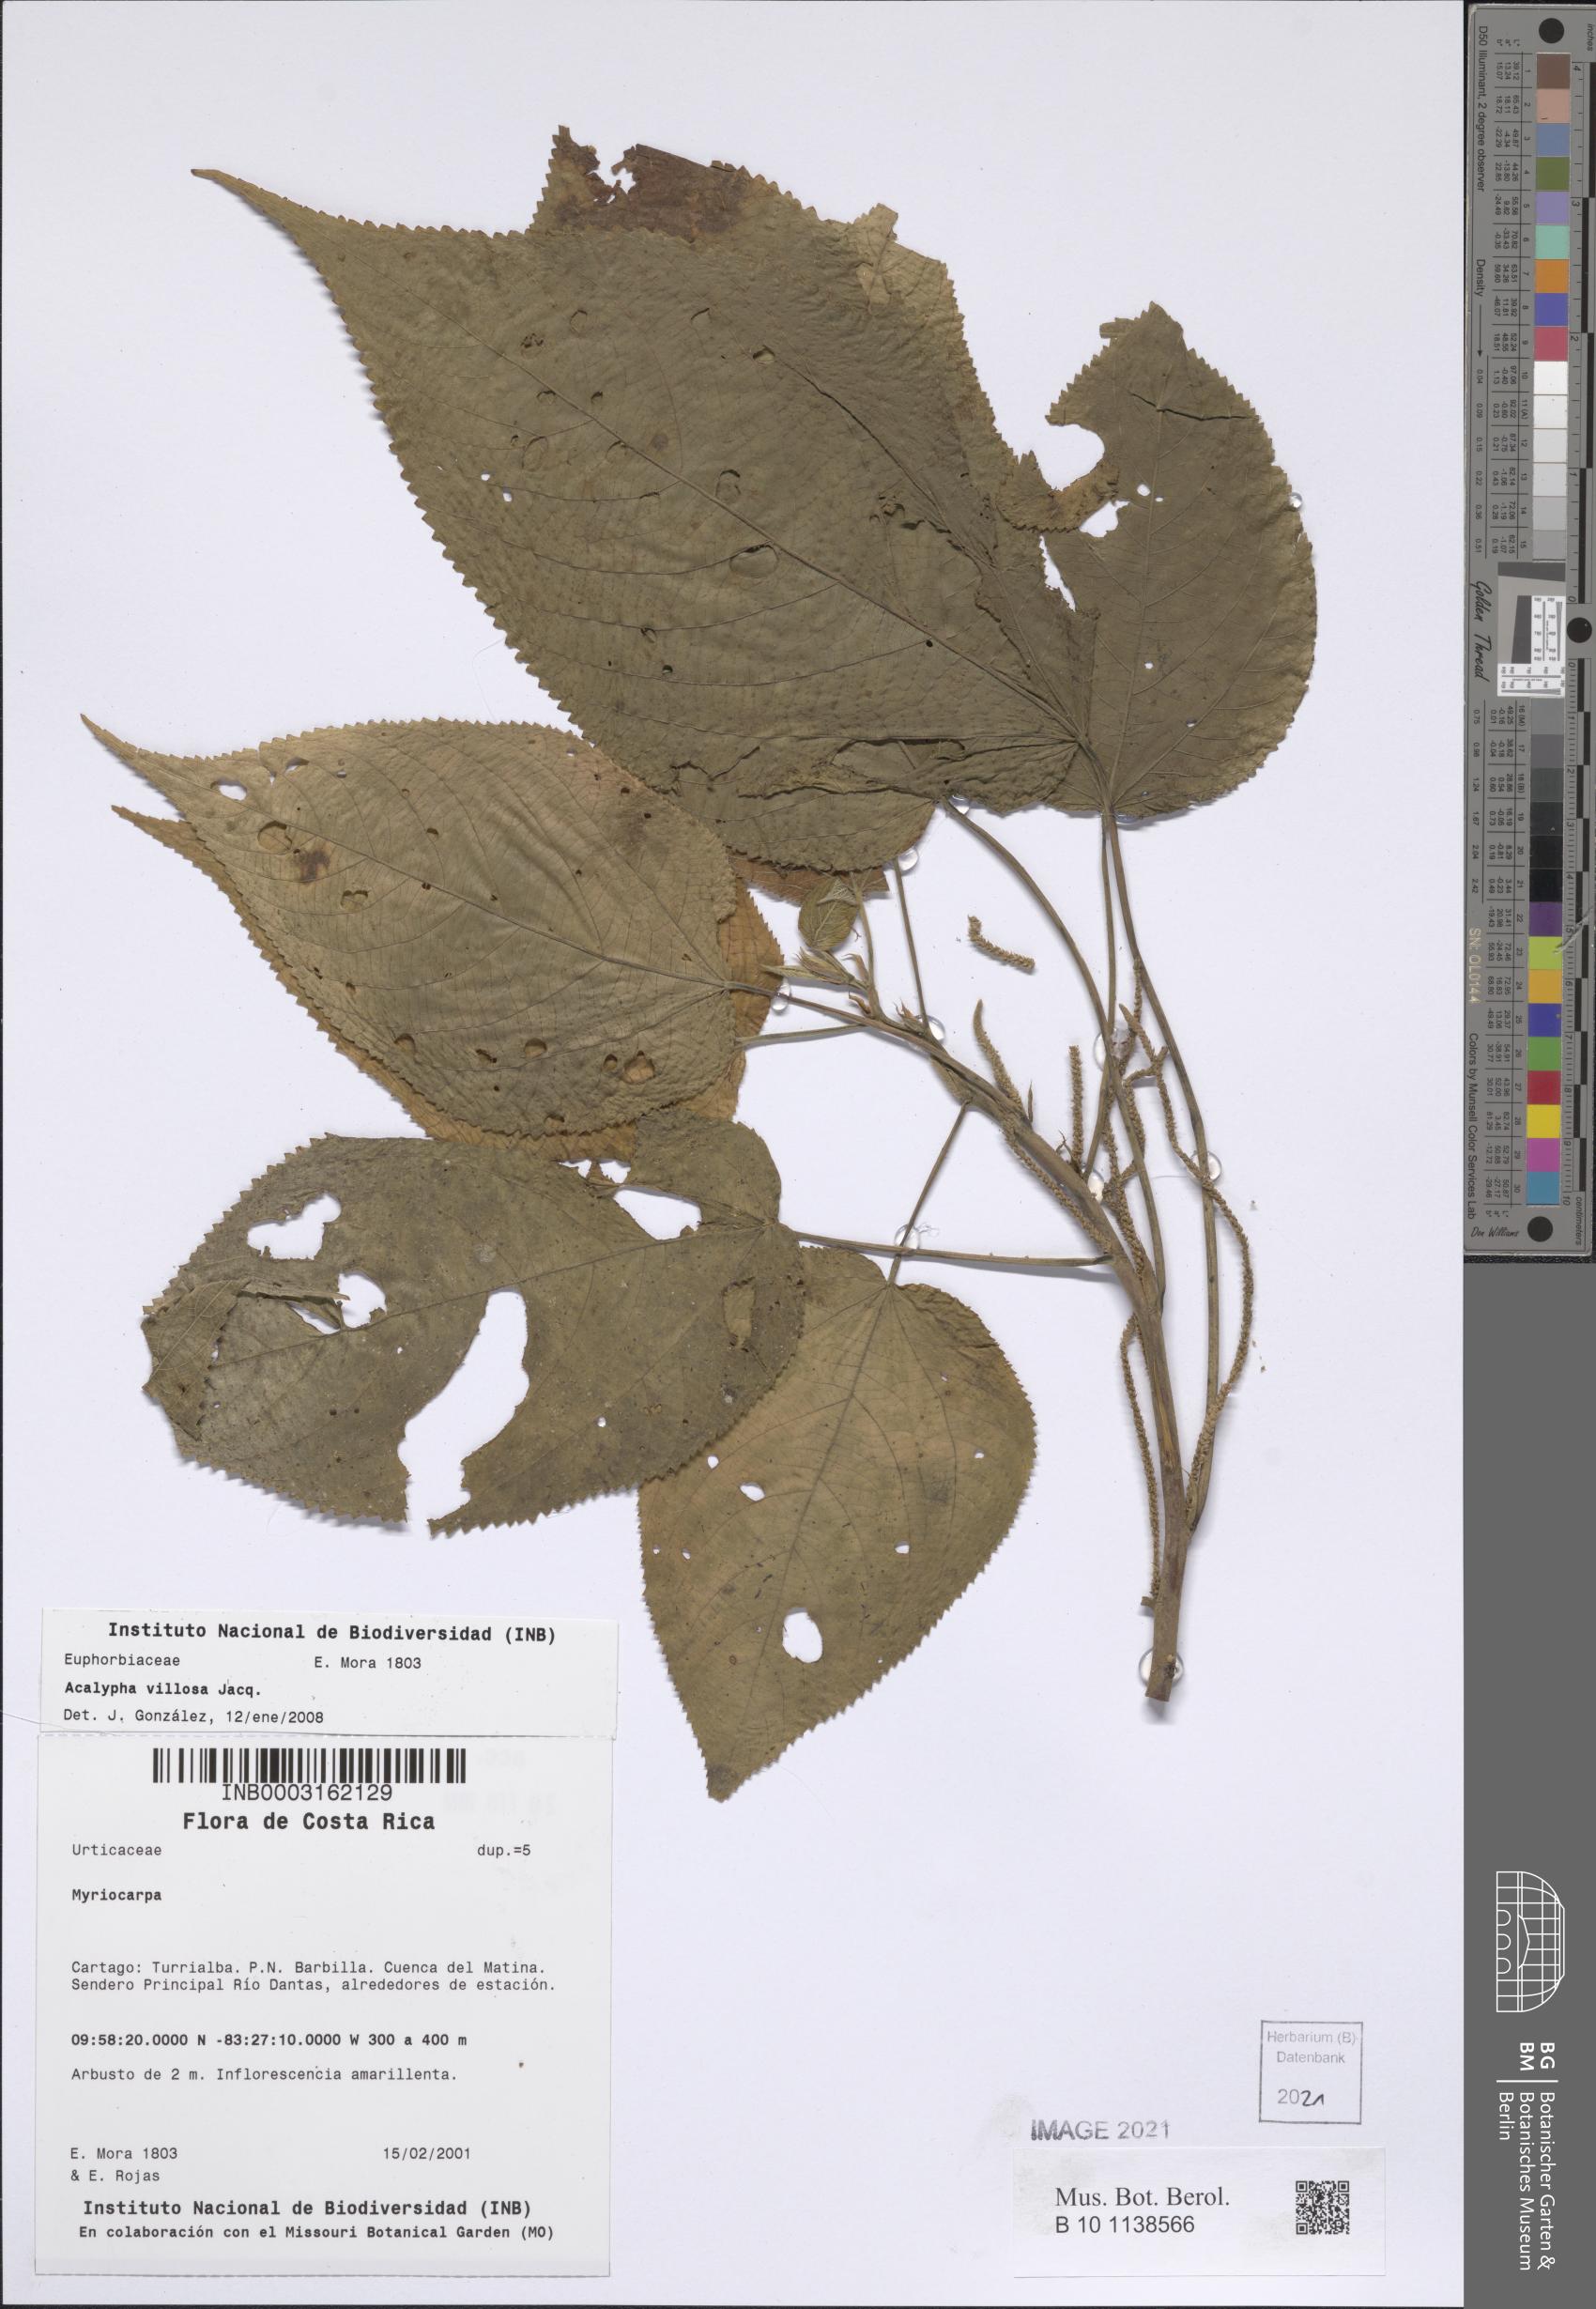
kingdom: Plantae
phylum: Tracheophyta
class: Magnoliopsida
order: Malpighiales
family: Euphorbiaceae
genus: Acalypha
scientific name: Acalypha villosa
